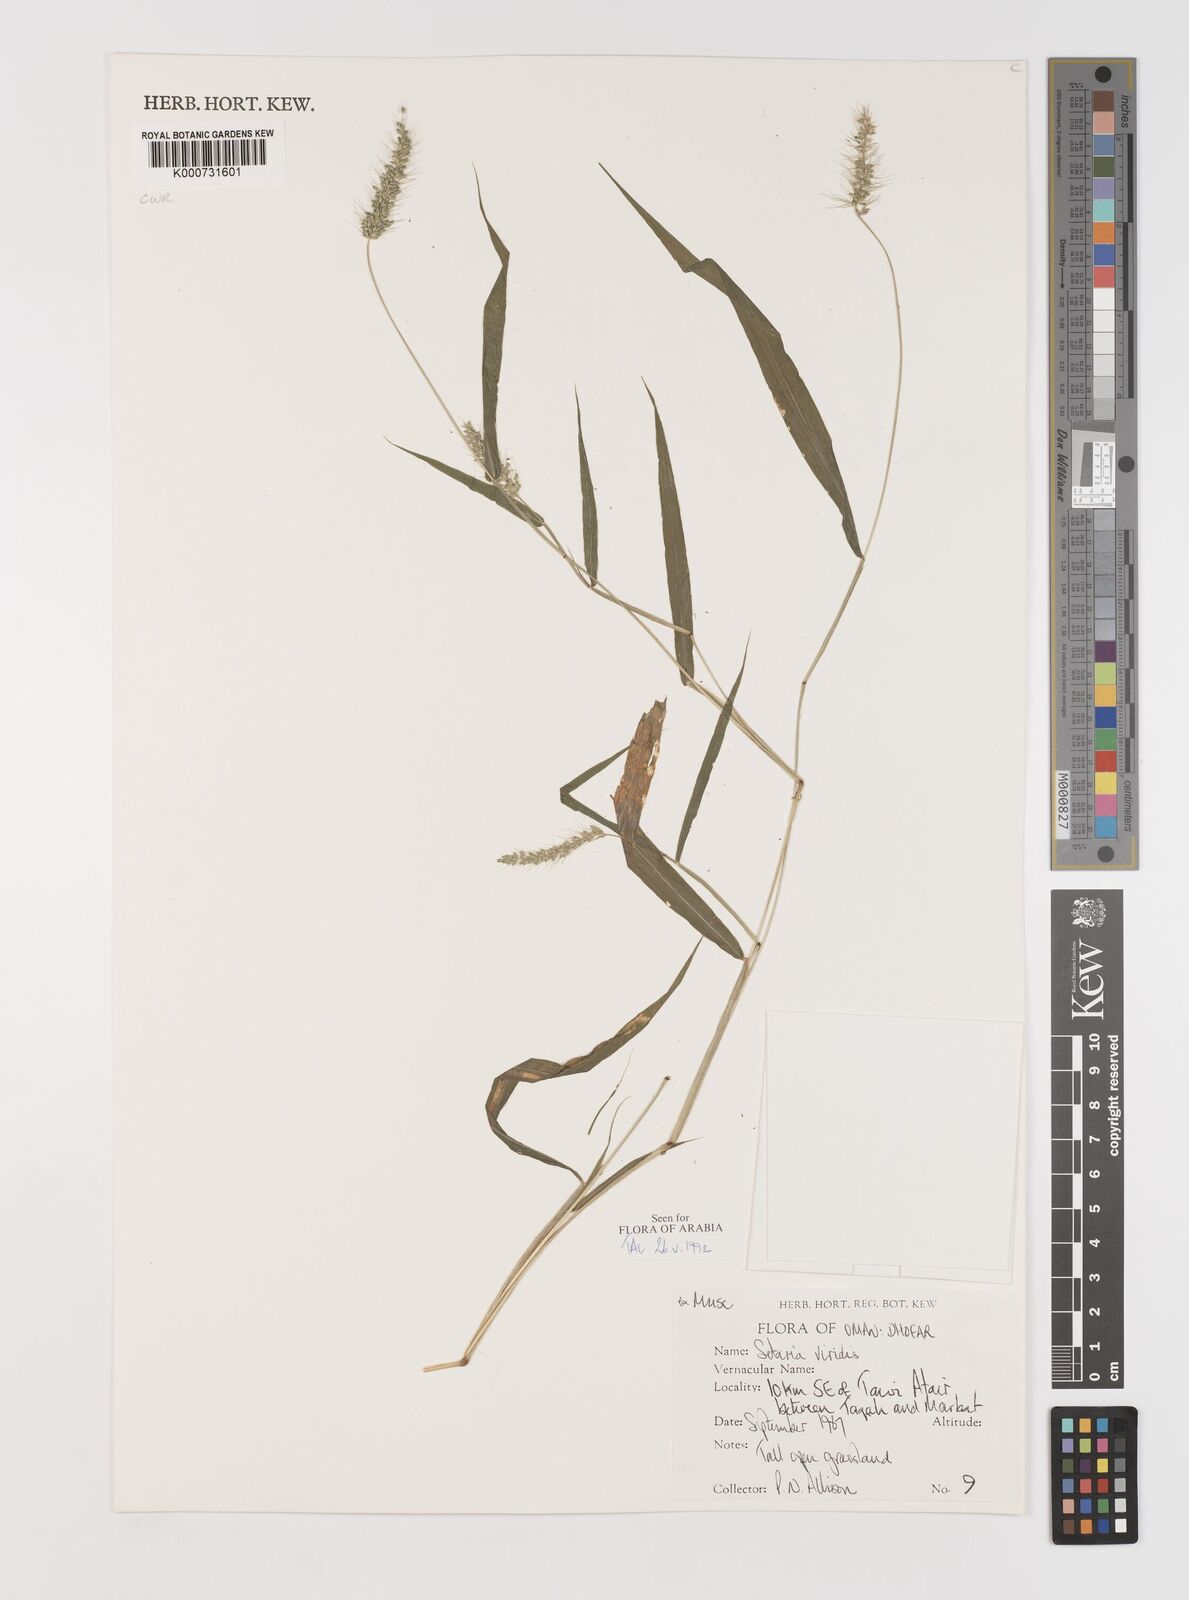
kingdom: Plantae
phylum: Tracheophyta
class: Liliopsida
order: Poales
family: Poaceae
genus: Setaria
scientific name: Setaria viridis
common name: Green bristlegrass
